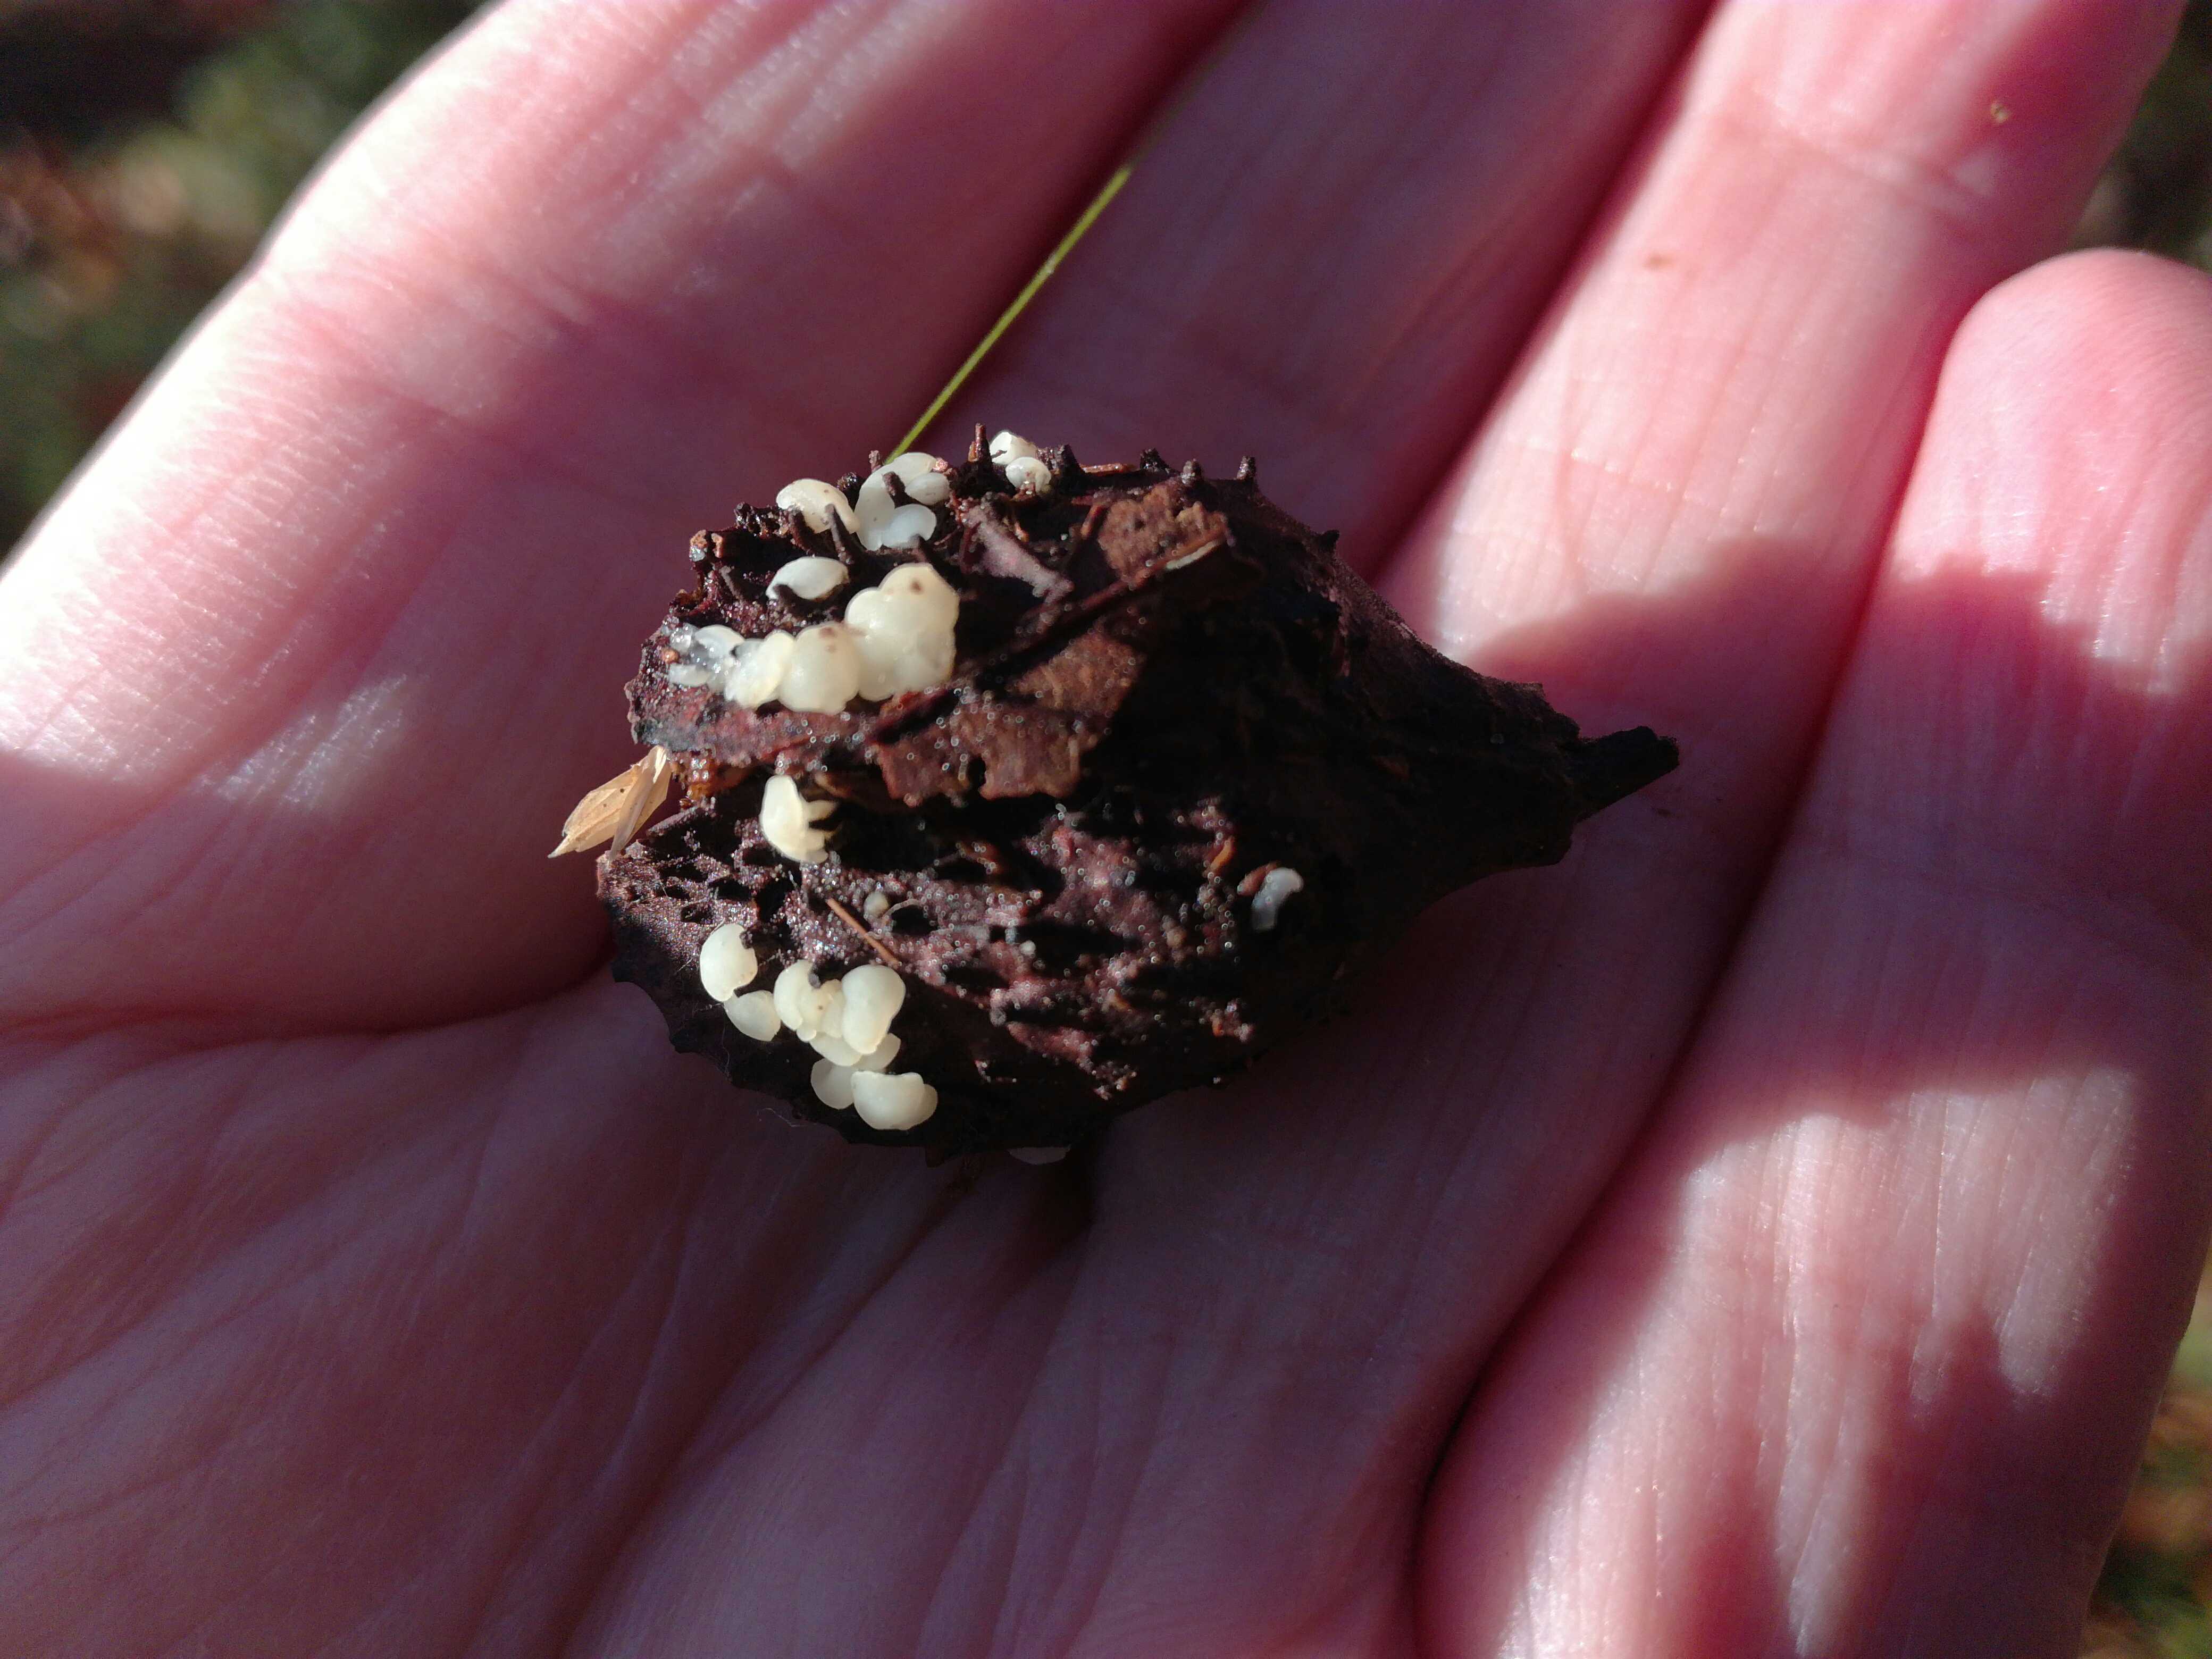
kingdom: Fungi
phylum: Ascomycota
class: Leotiomycetes
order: Helotiales
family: Helotiaceae
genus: Hymenoscyphus
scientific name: Hymenoscyphus fagineus
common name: vellugtende stilkskive
